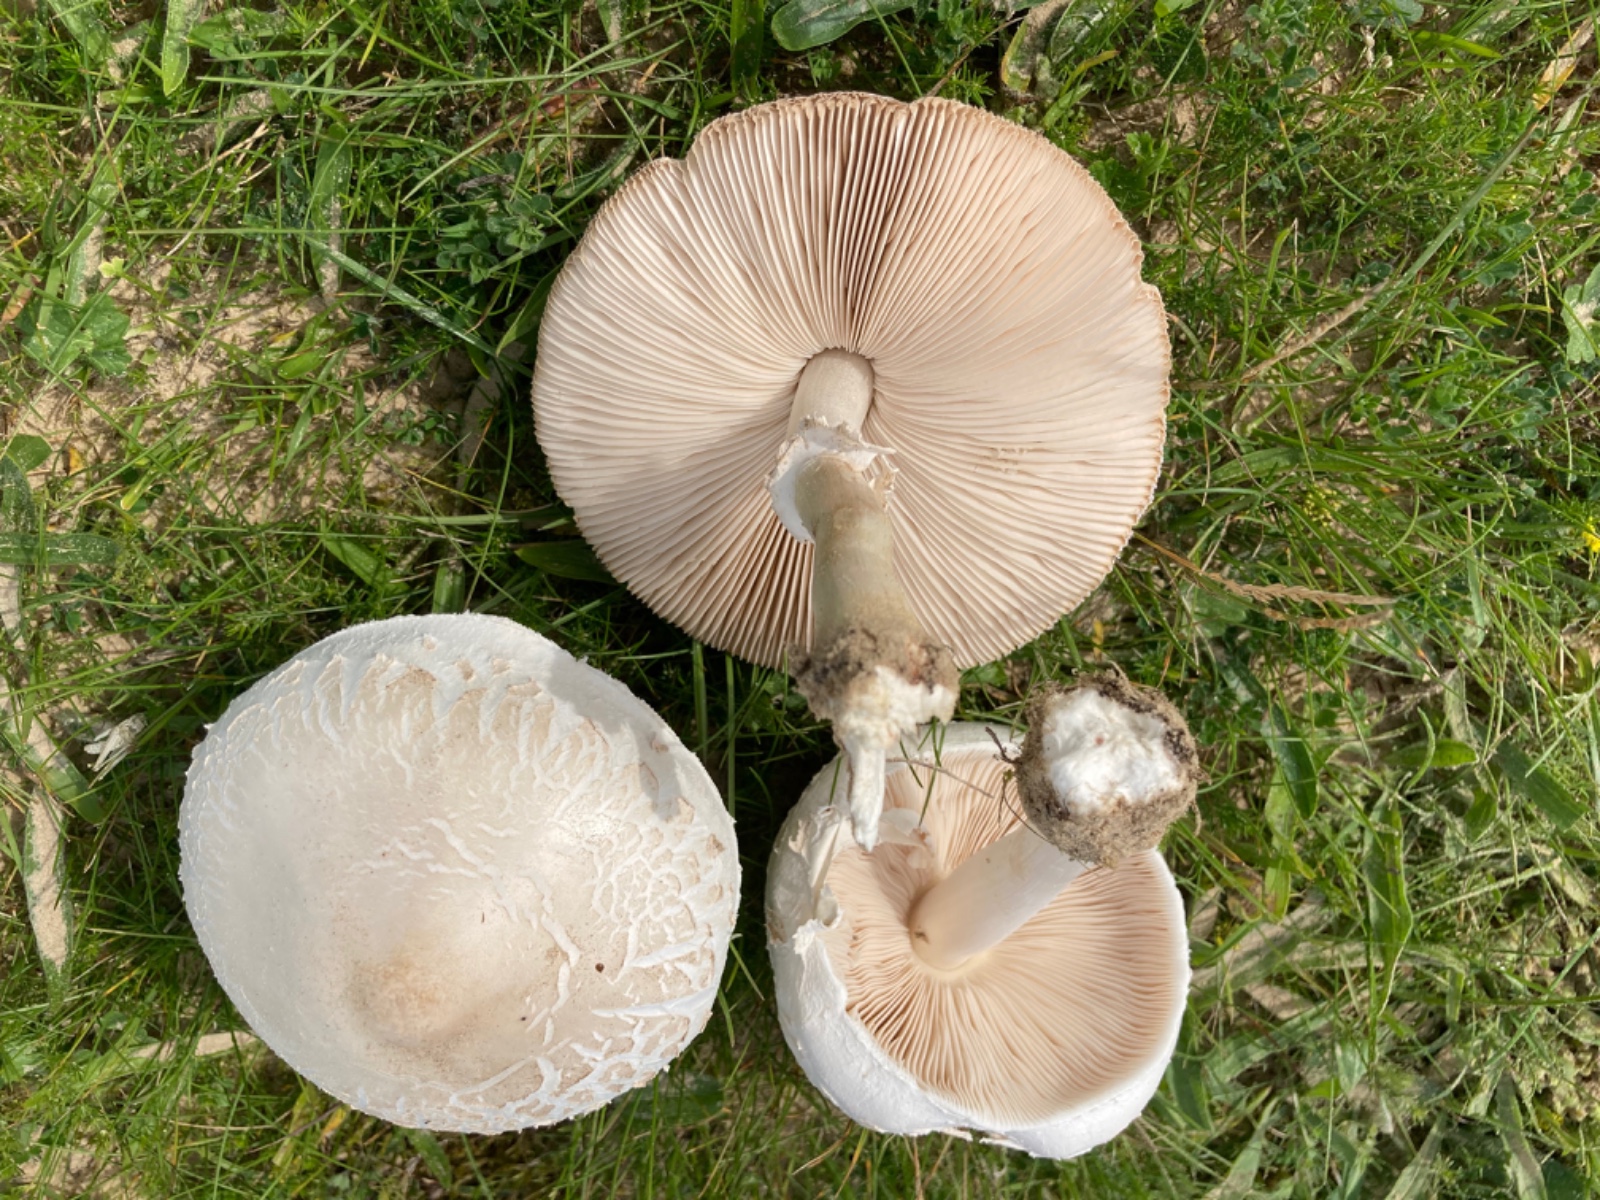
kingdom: Fungi
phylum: Basidiomycota
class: Agaricomycetes
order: Agaricales
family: Agaricaceae
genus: Macrolepiota
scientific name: Macrolepiota excoriata
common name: mark-kæmpeparasolhat
